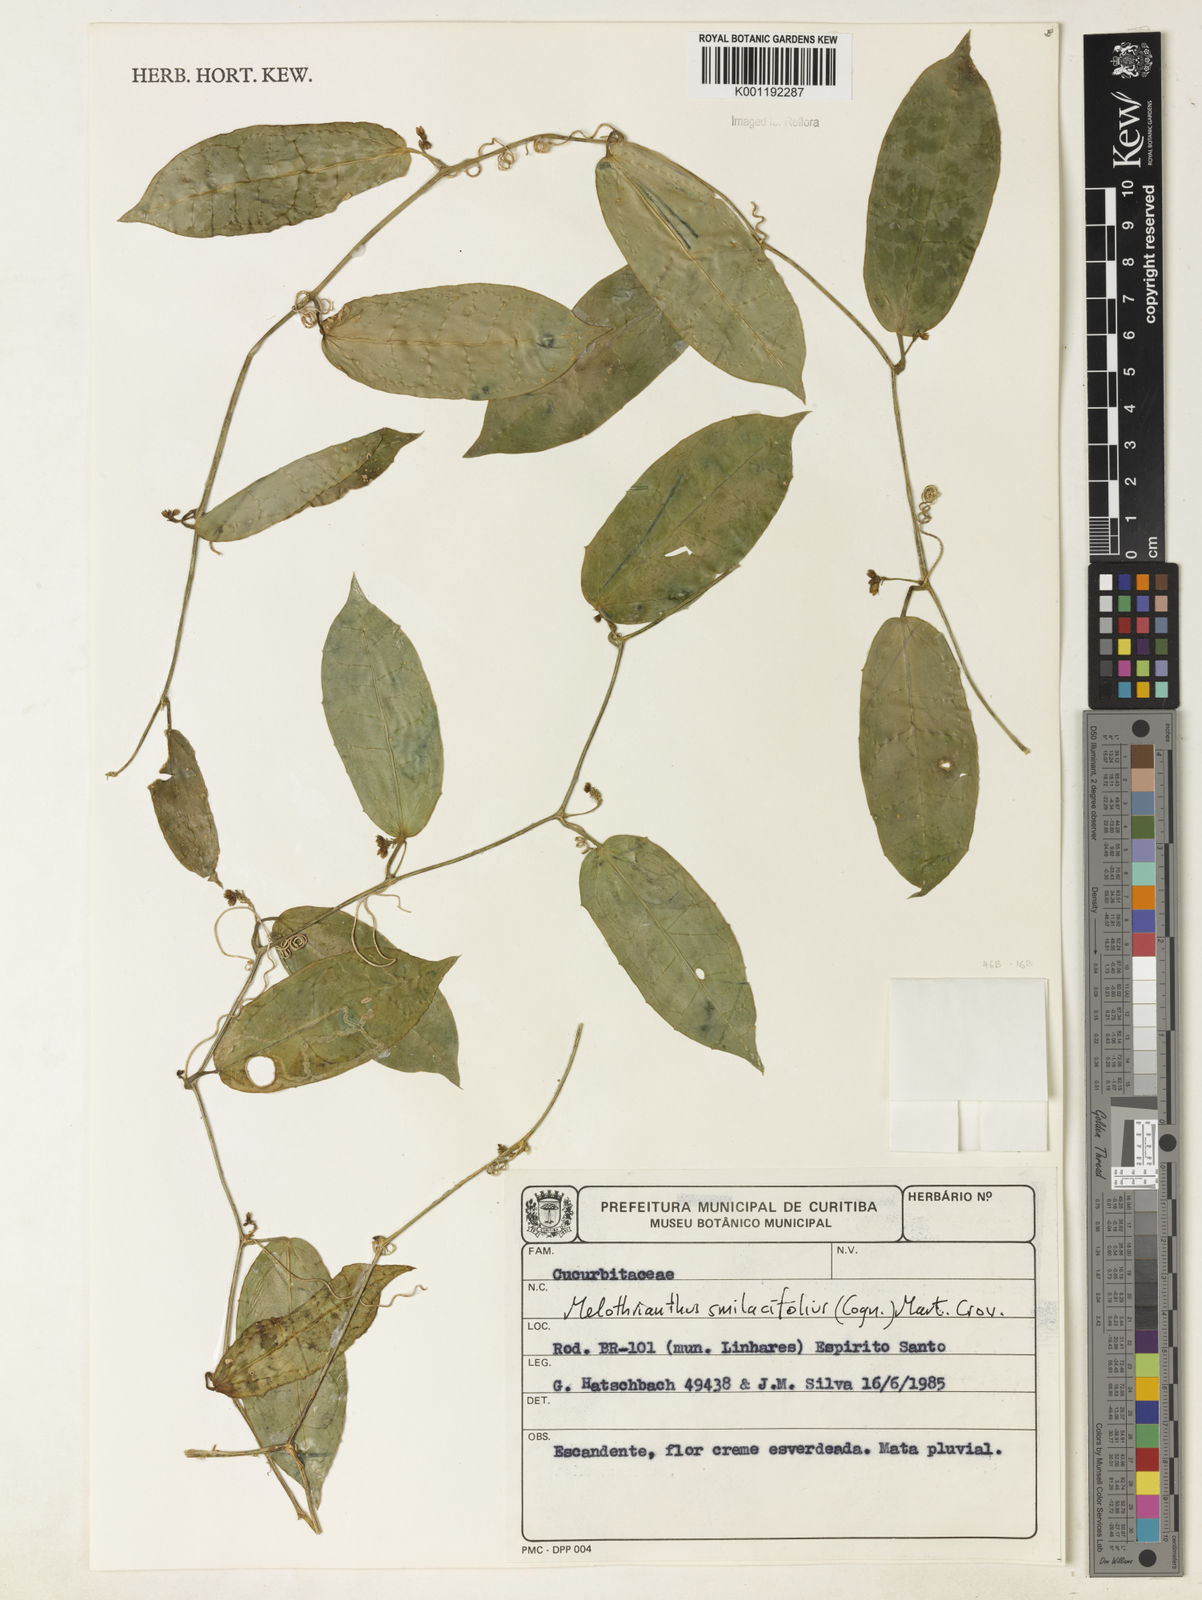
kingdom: Plantae
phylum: Tracheophyta
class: Magnoliopsida
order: Cucurbitales
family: Cucurbitaceae
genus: Apodanthera
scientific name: Apodanthera smilacifolia
